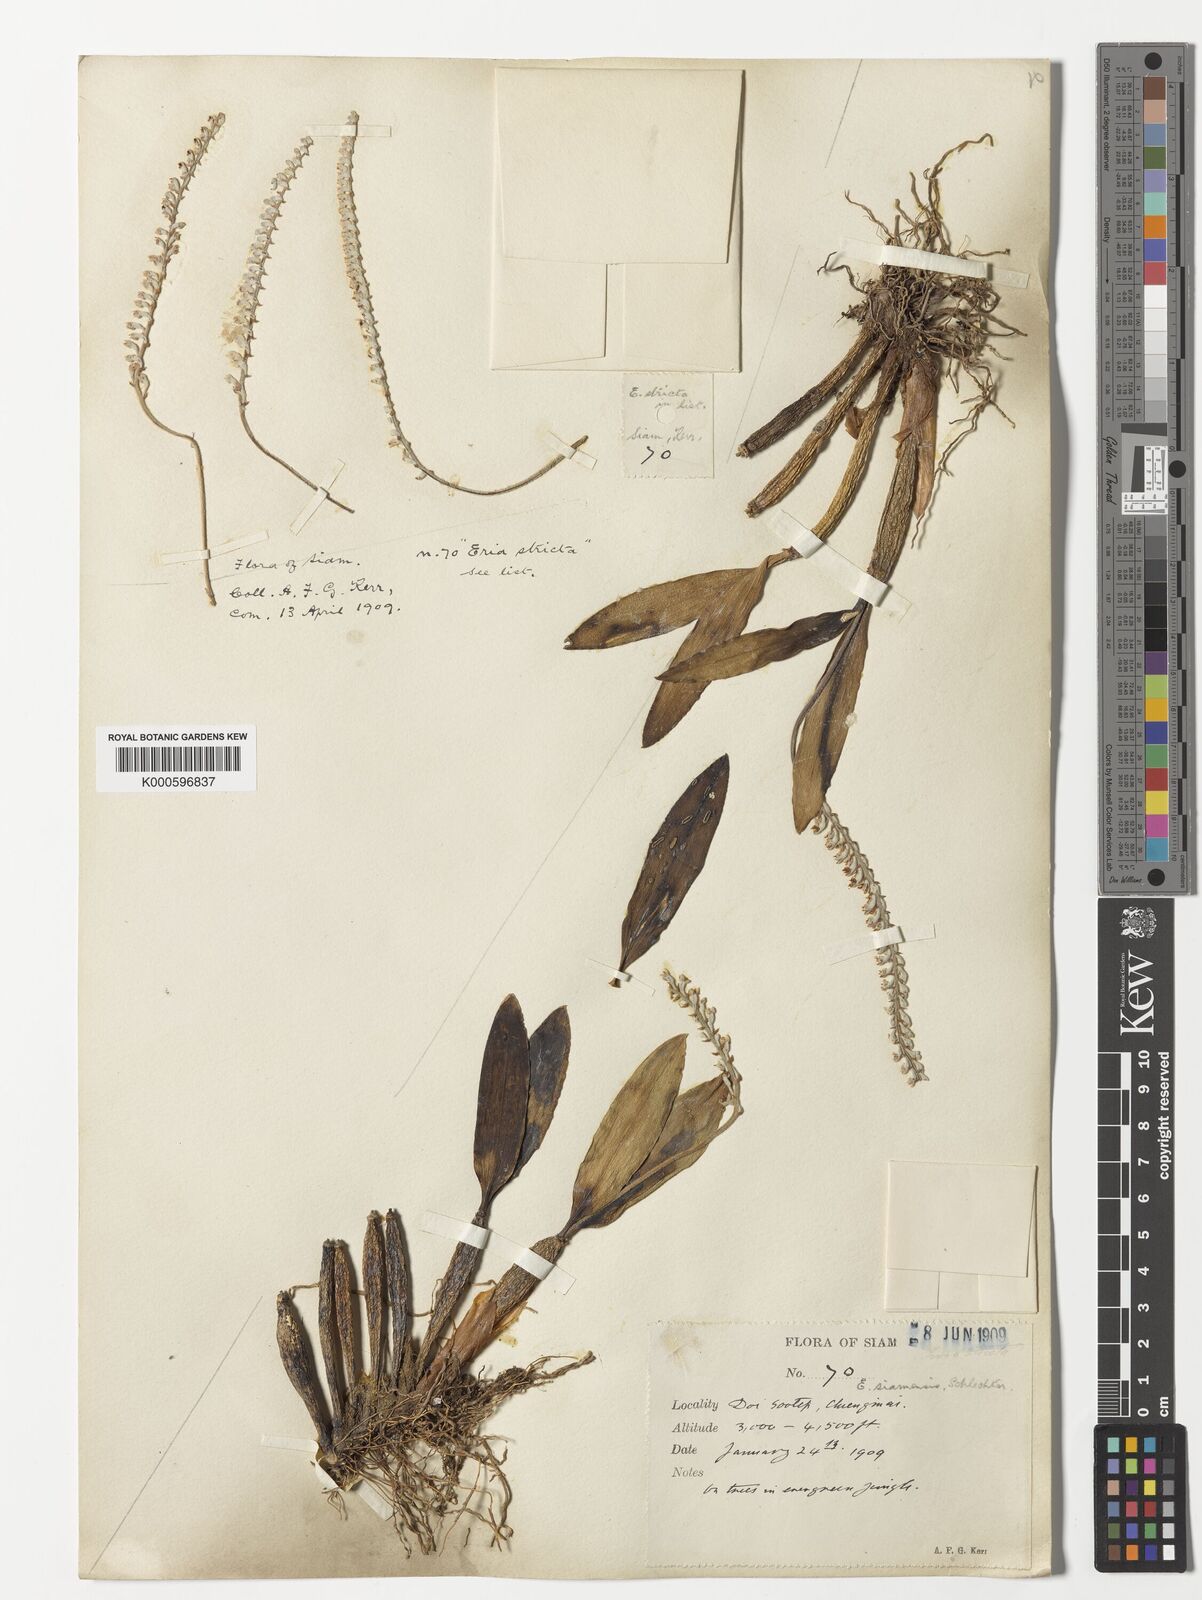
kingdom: Plantae
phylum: Tracheophyta
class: Liliopsida
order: Asparagales
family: Orchidaceae
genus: Cryptochilus
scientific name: Cryptochilus siamensis
